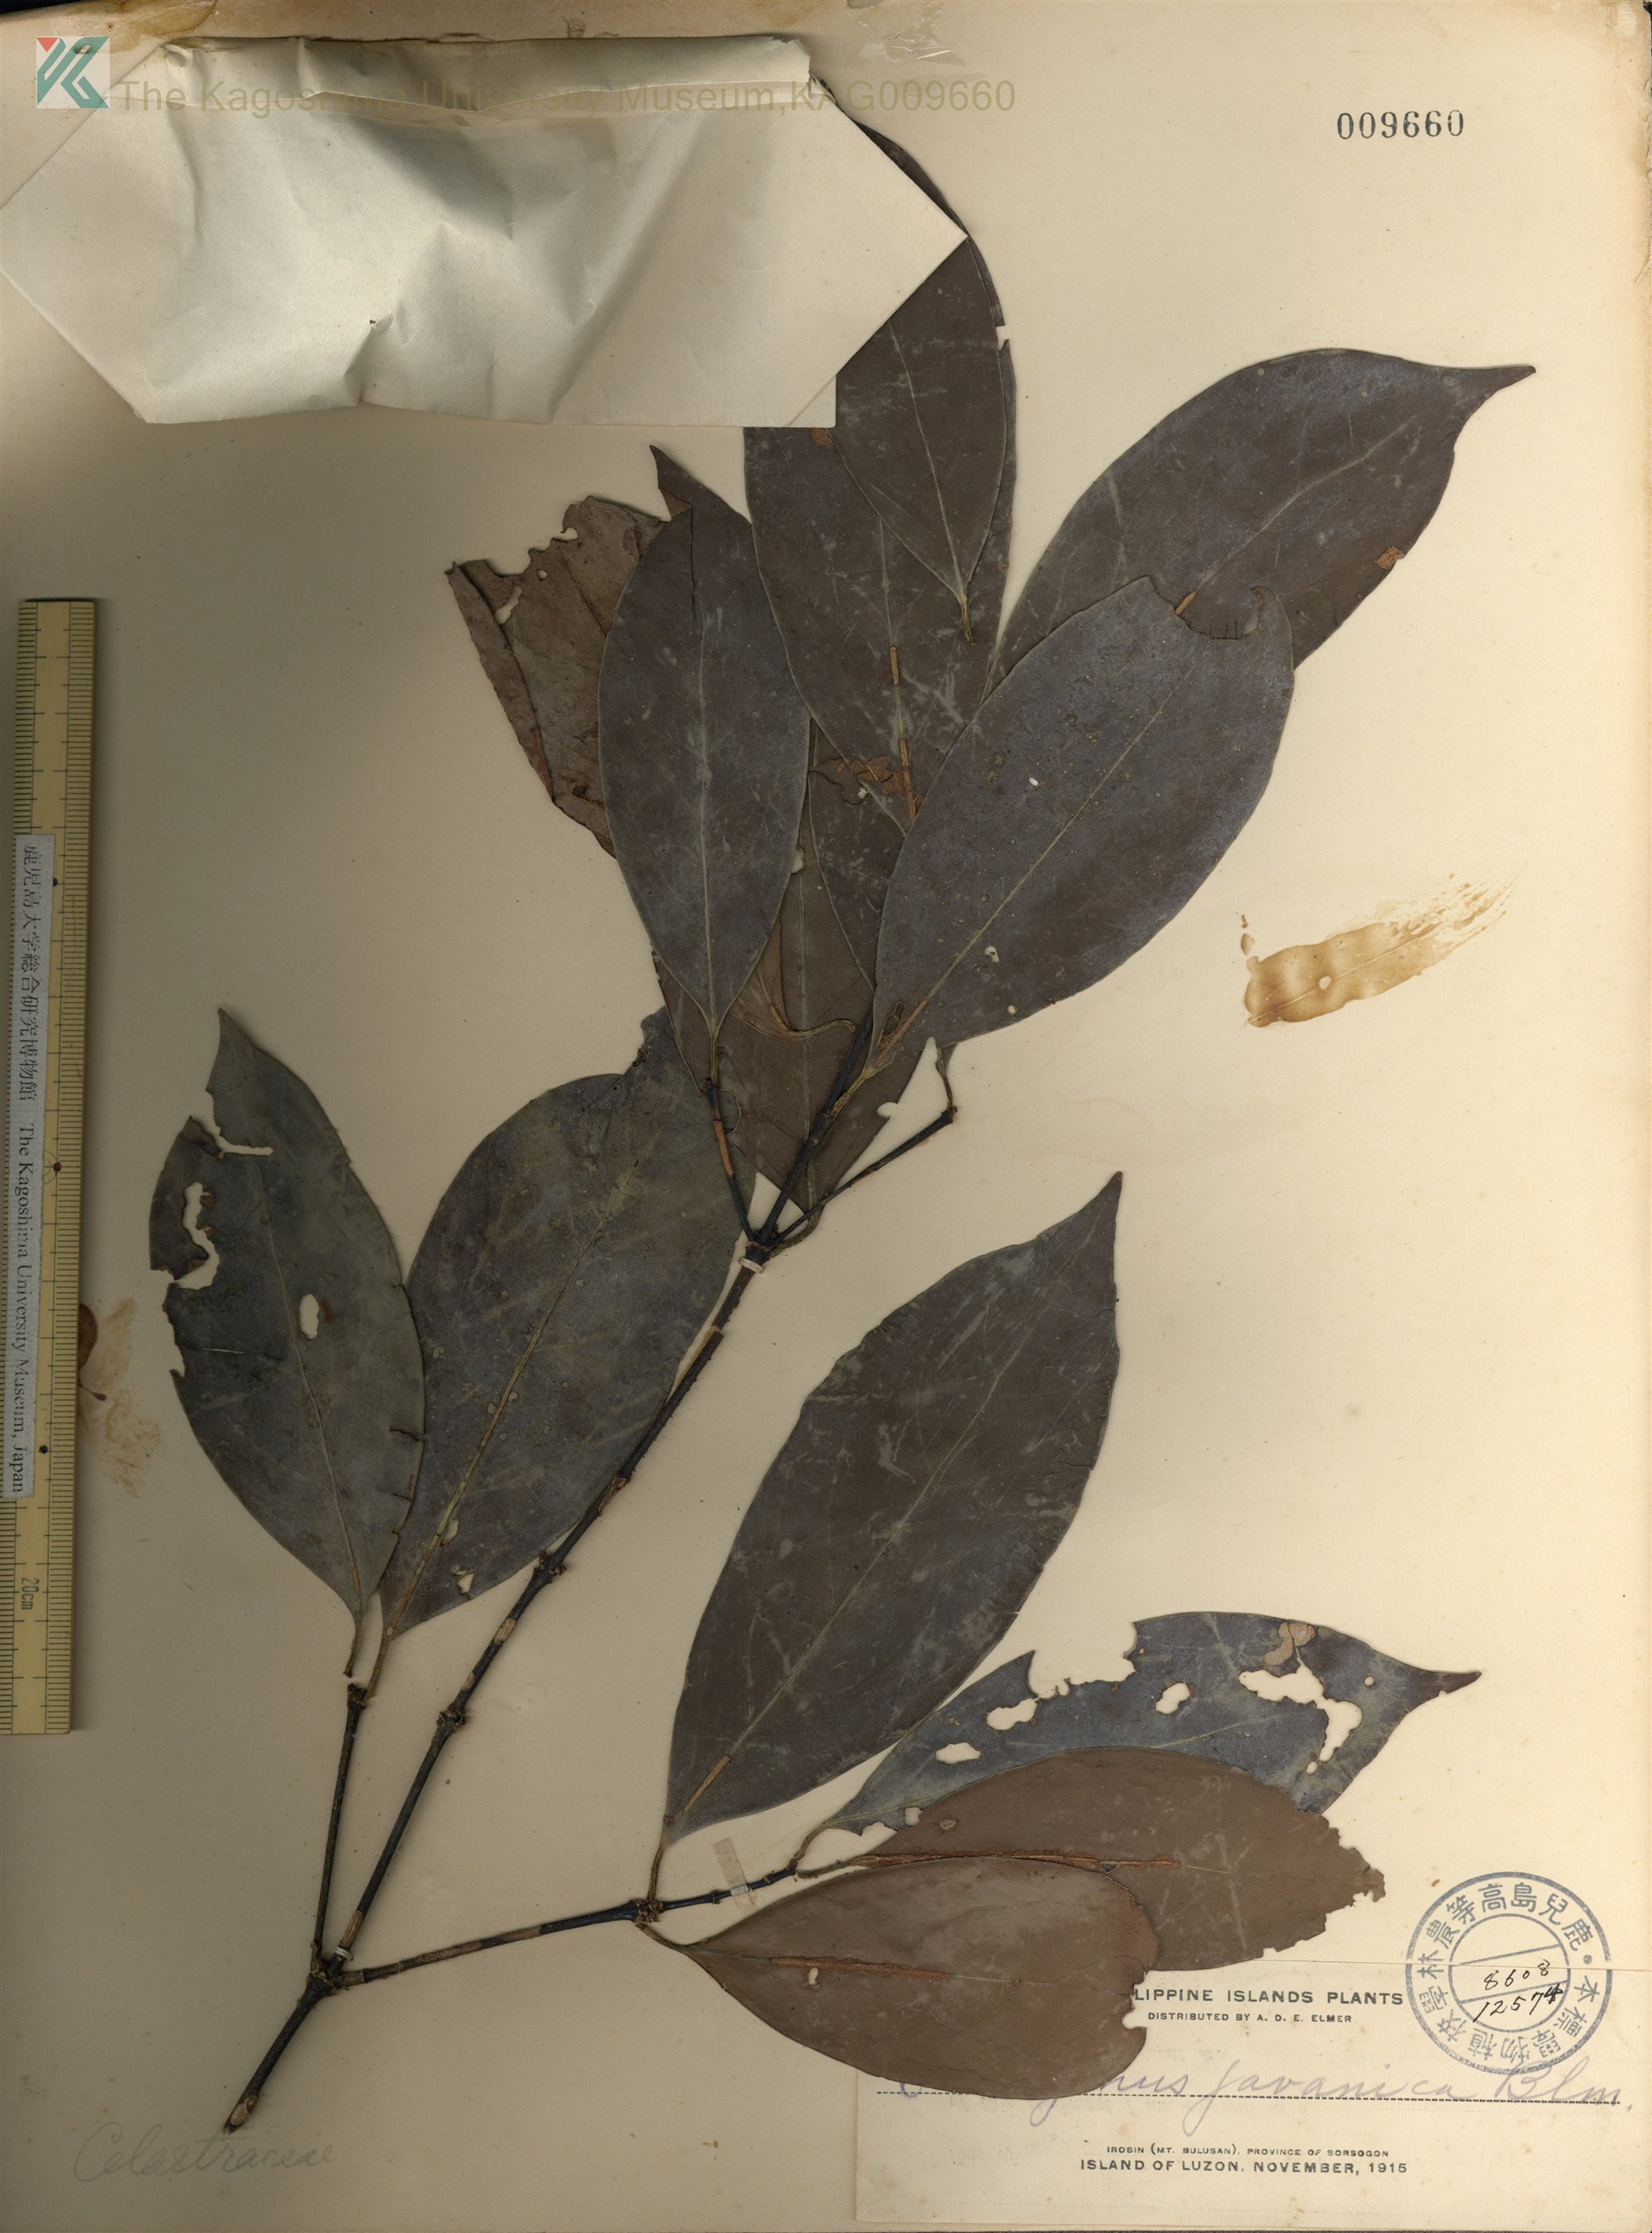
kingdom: Plantae
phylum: Tracheophyta
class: Magnoliopsida
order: Celastrales
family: Celastraceae
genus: Euonymus
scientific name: Euonymus indicus
